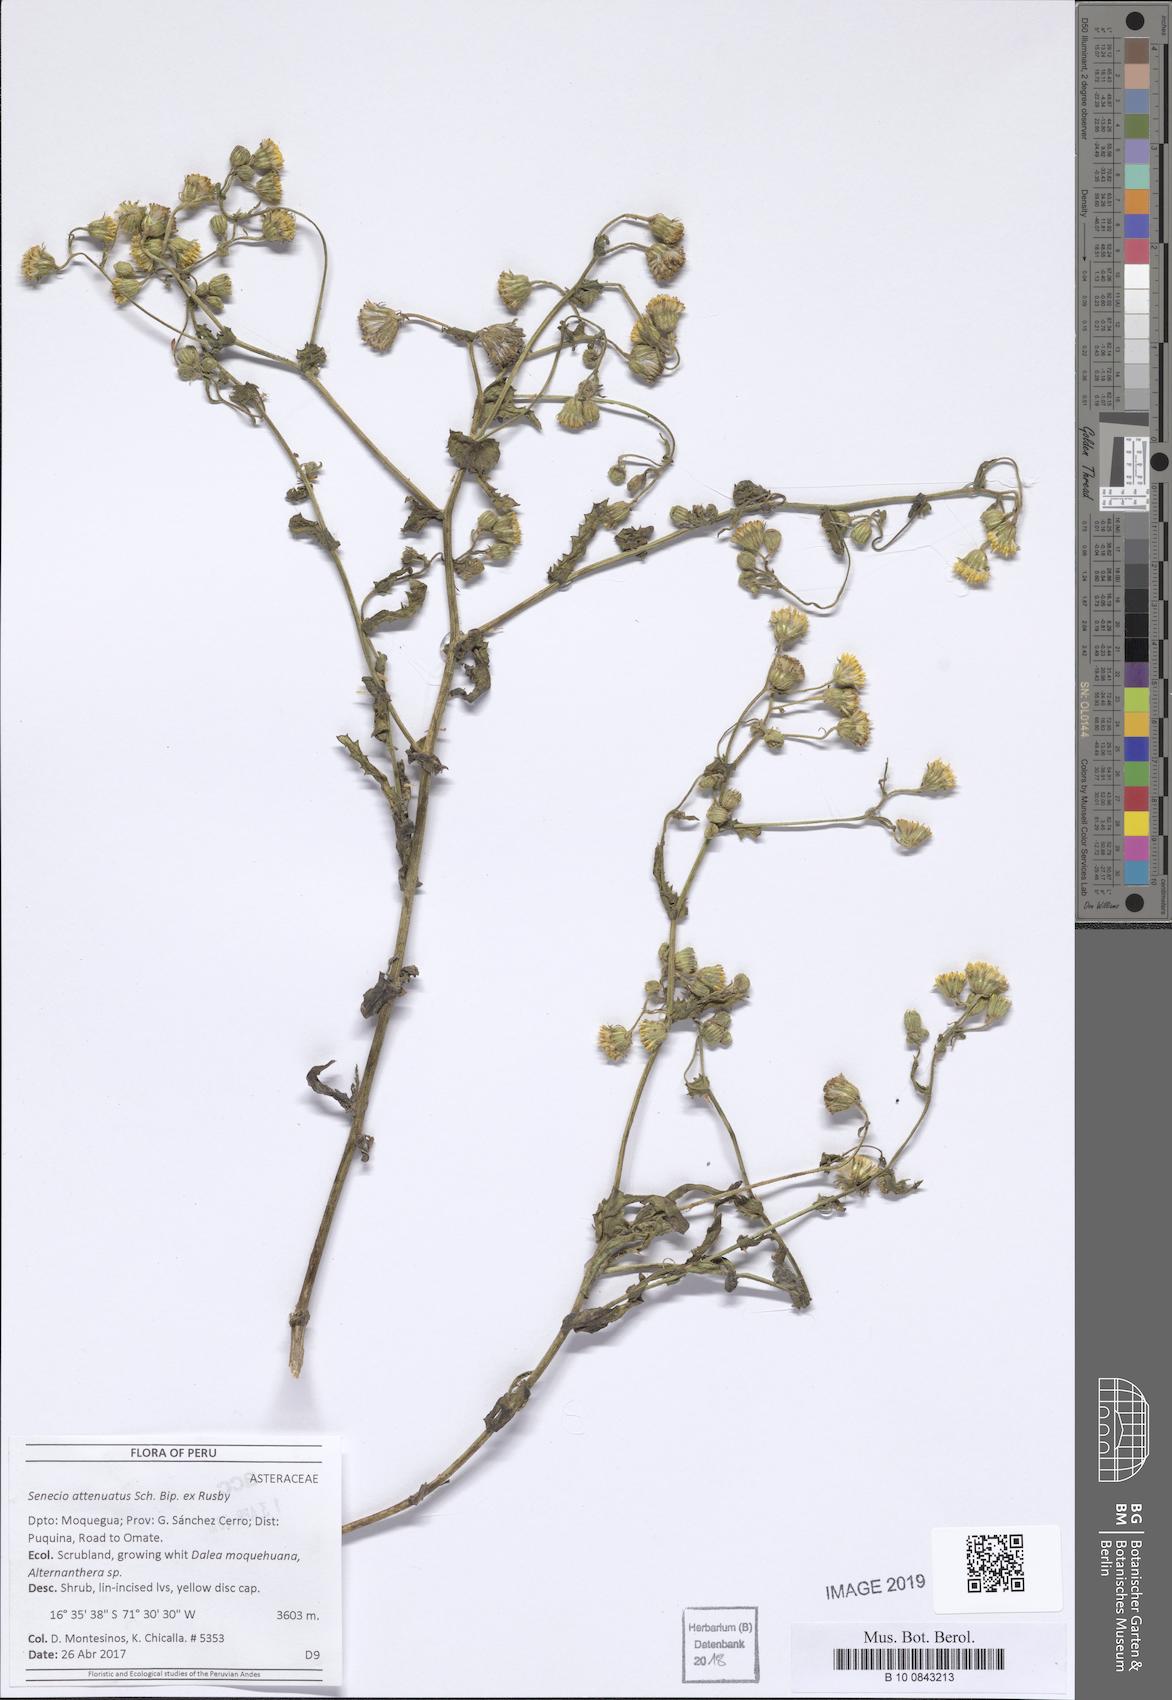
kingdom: Plantae
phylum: Tracheophyta
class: Magnoliopsida
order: Asterales
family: Asteraceae
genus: Senecio
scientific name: Senecio attenuatus
